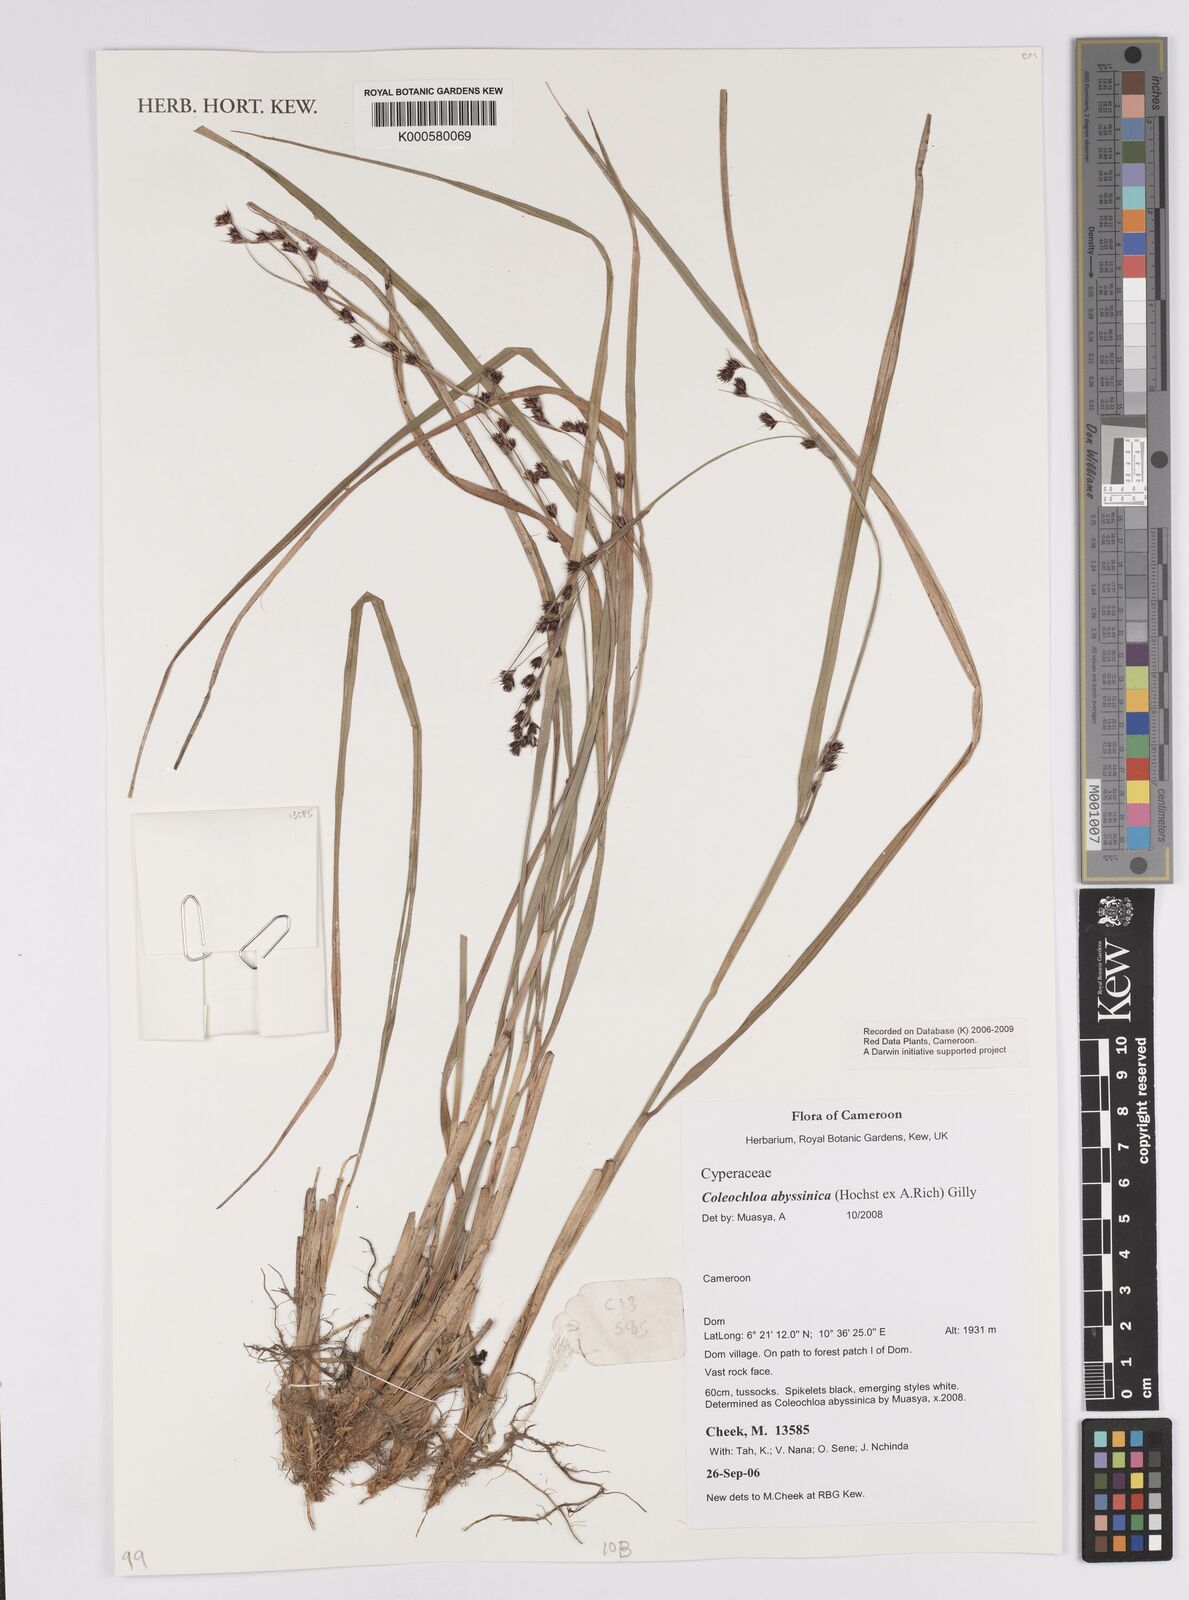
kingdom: Plantae
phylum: Tracheophyta
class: Liliopsida
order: Poales
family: Cyperaceae
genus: Coleochloa
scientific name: Coleochloa abyssinica
